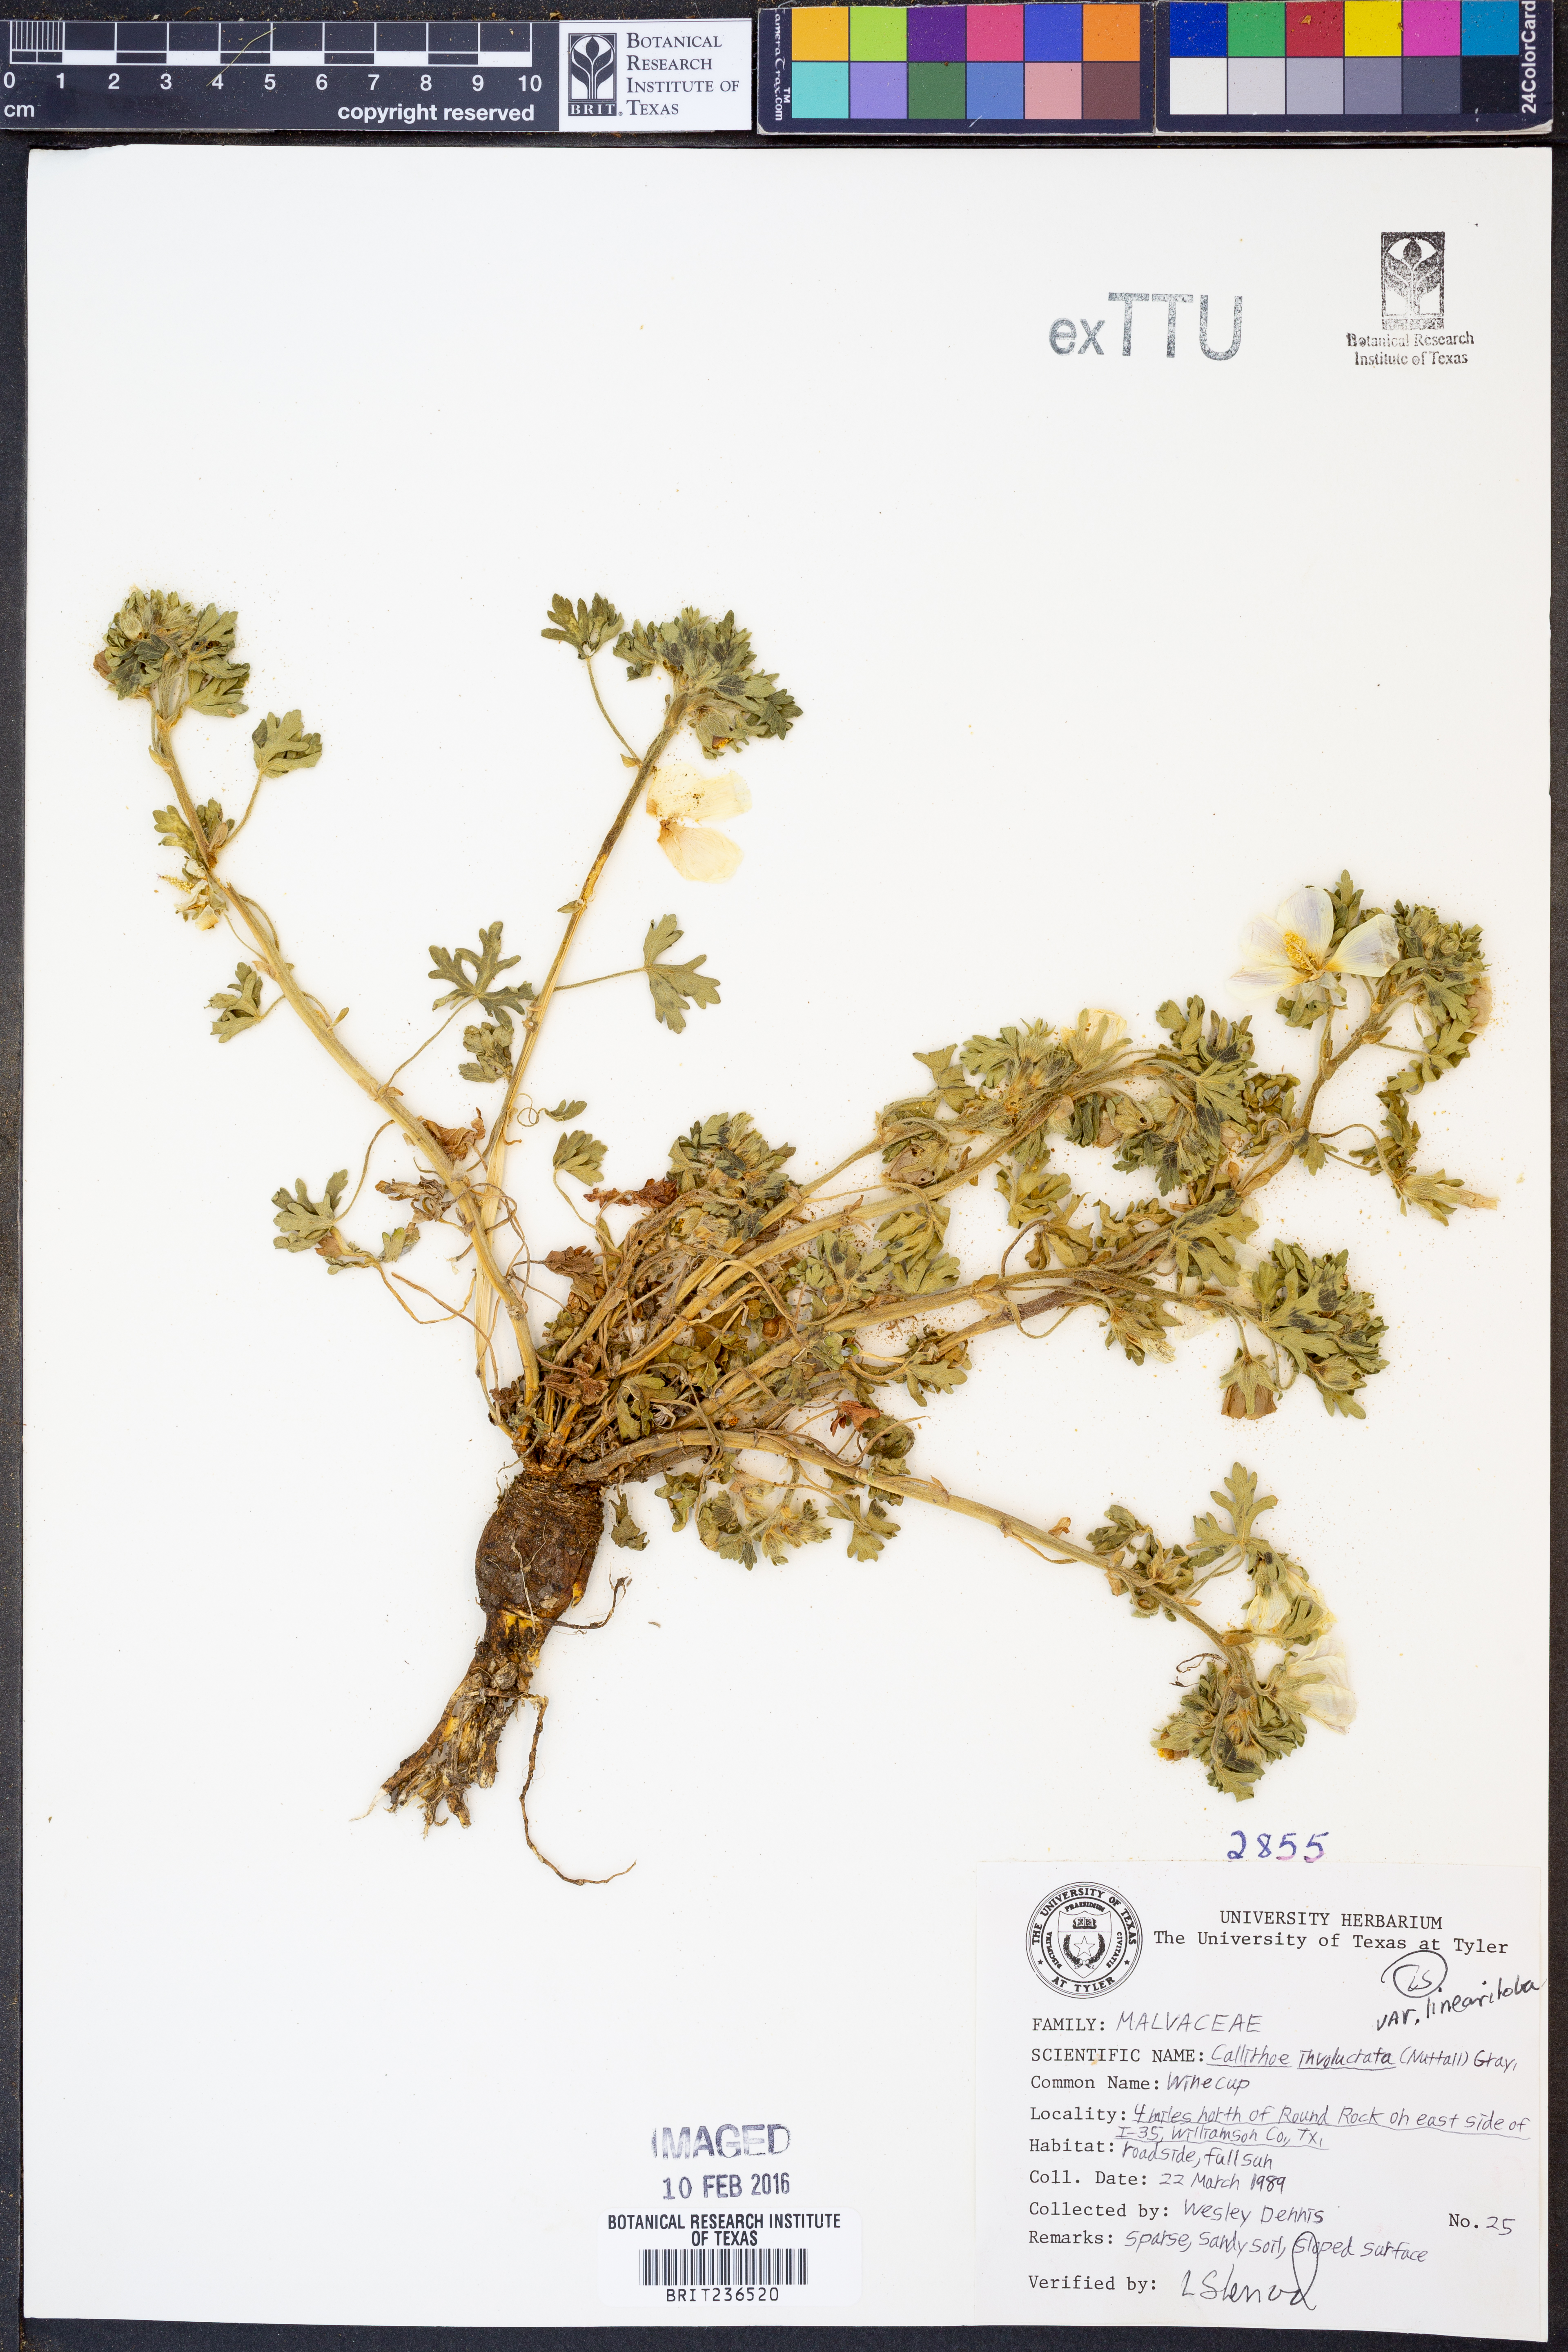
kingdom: Plantae
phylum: Tracheophyta
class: Magnoliopsida
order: Malvales
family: Malvaceae
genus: Callirhoe
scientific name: Callirhoe involucrata
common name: Purple poppy-mallow
